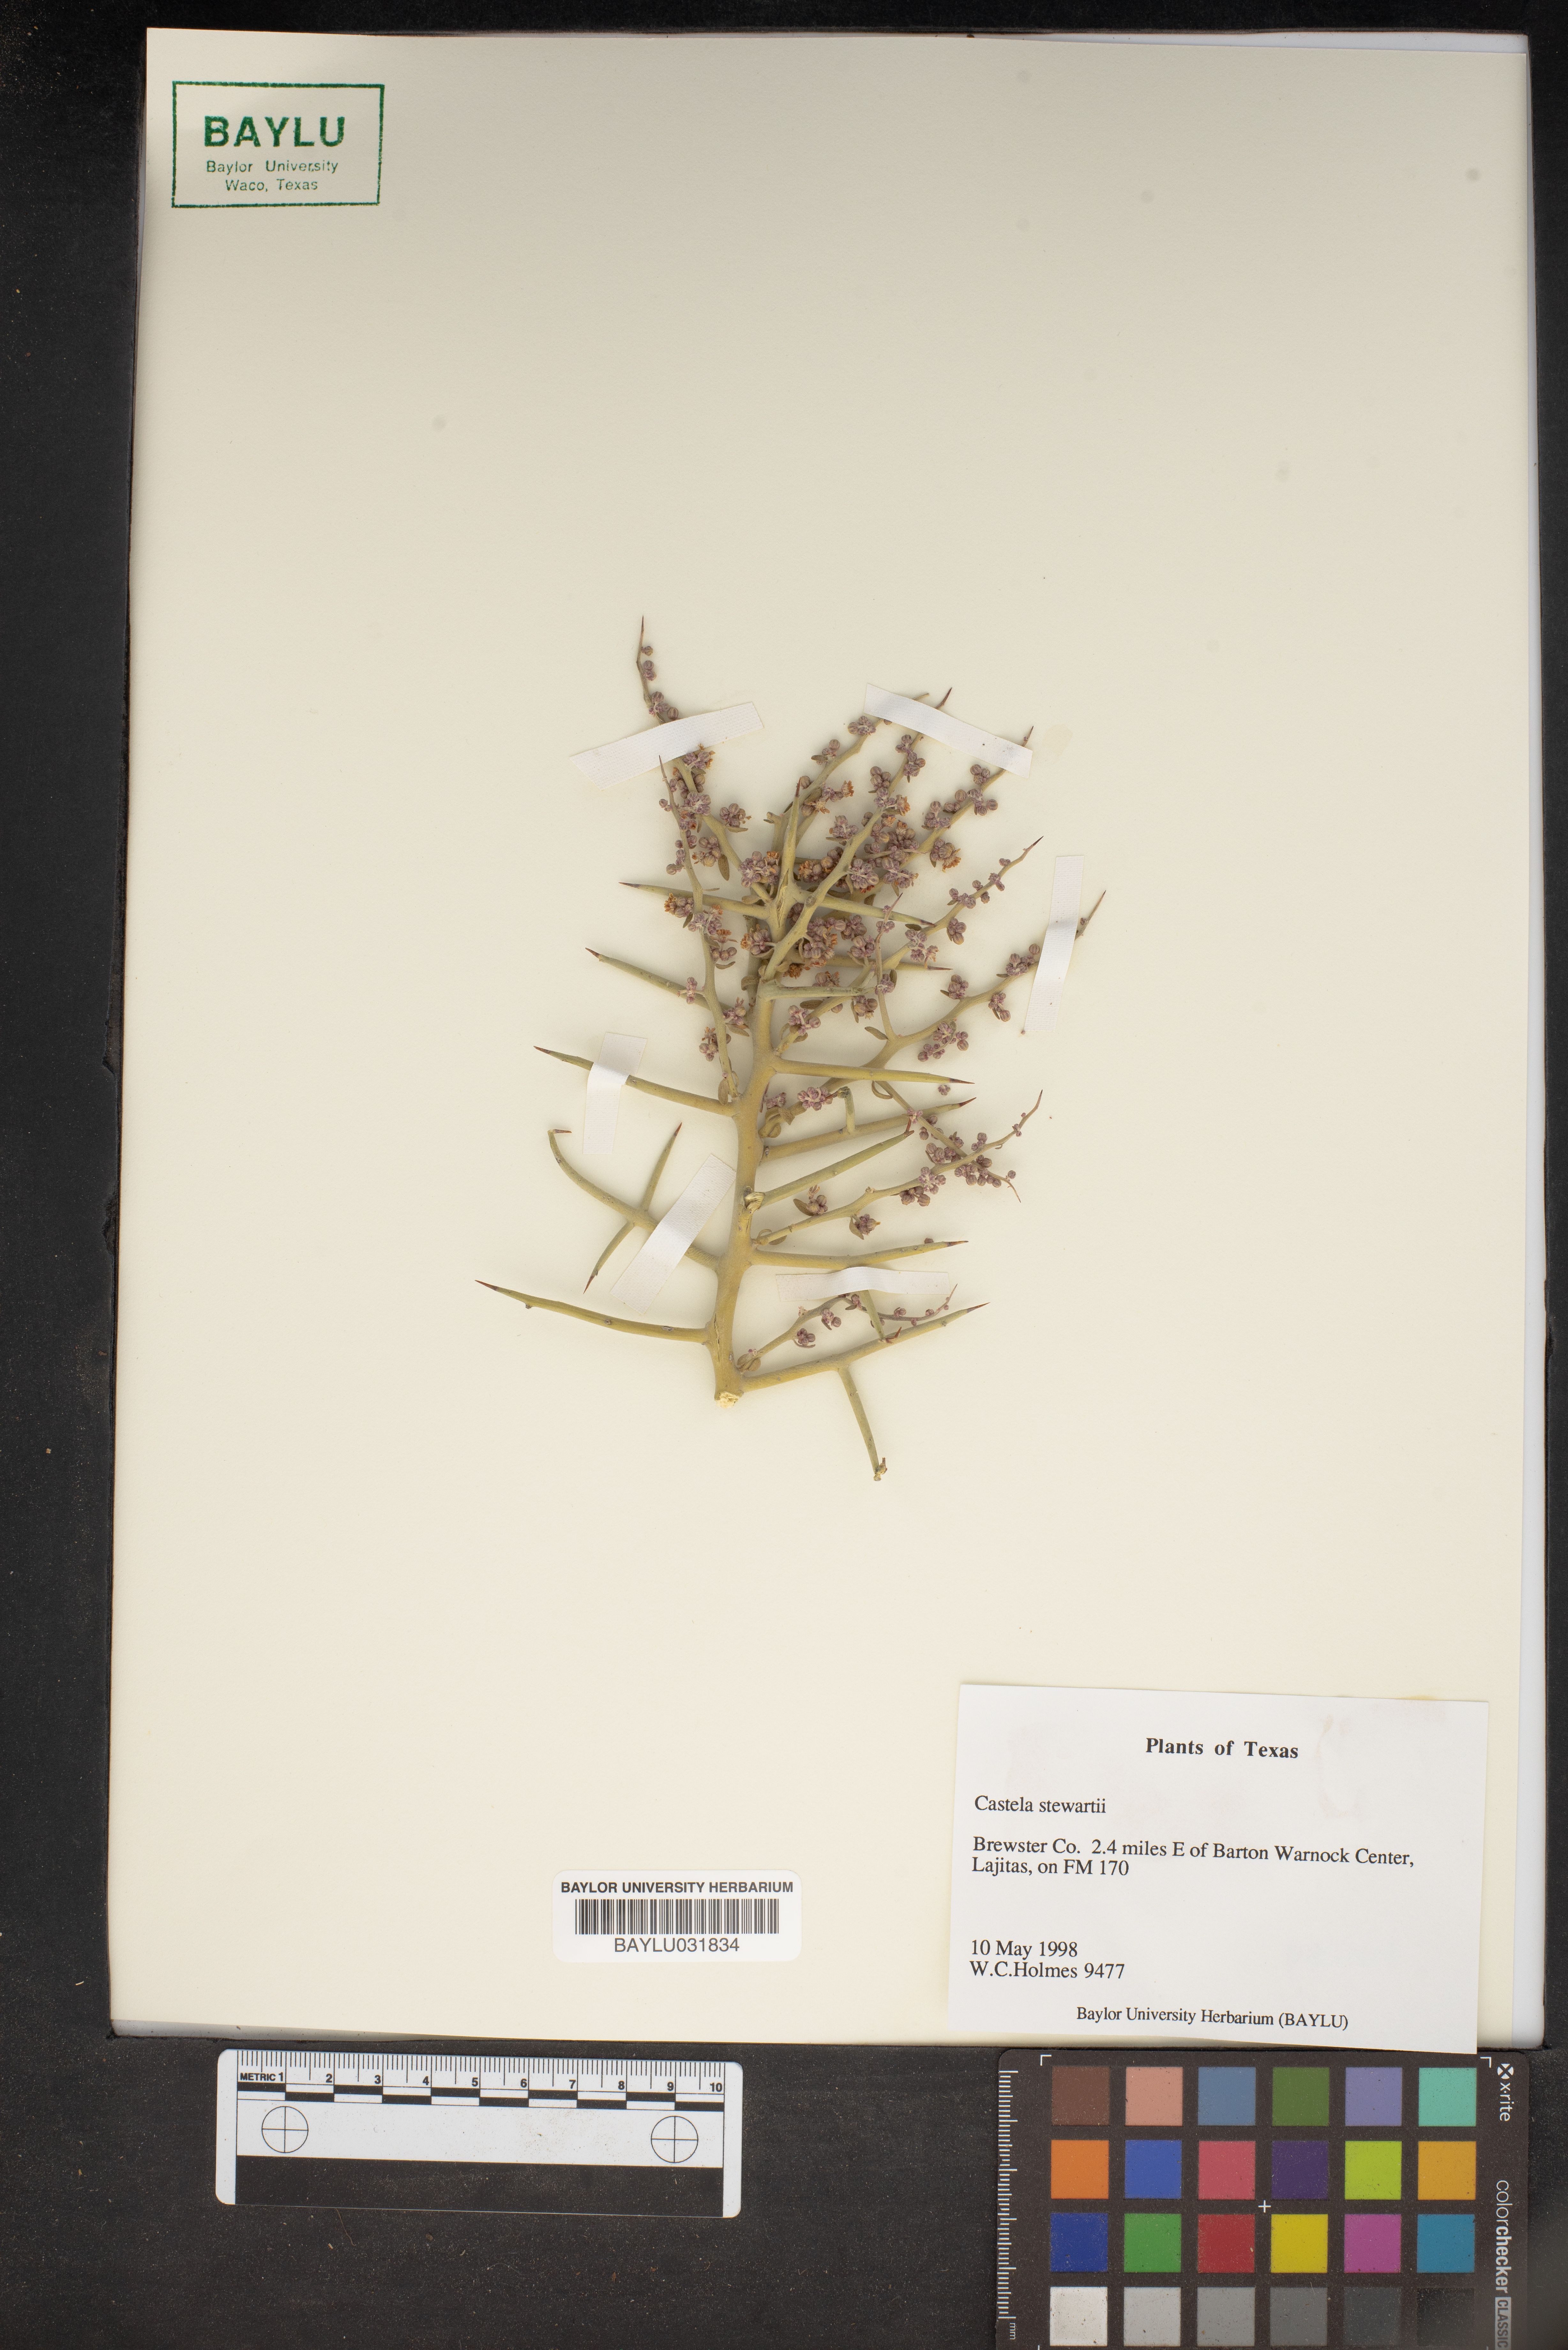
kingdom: Plantae
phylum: Tracheophyta
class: Magnoliopsida
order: Sapindales
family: Simaroubaceae
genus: Holacantha
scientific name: Holacantha stewartii
